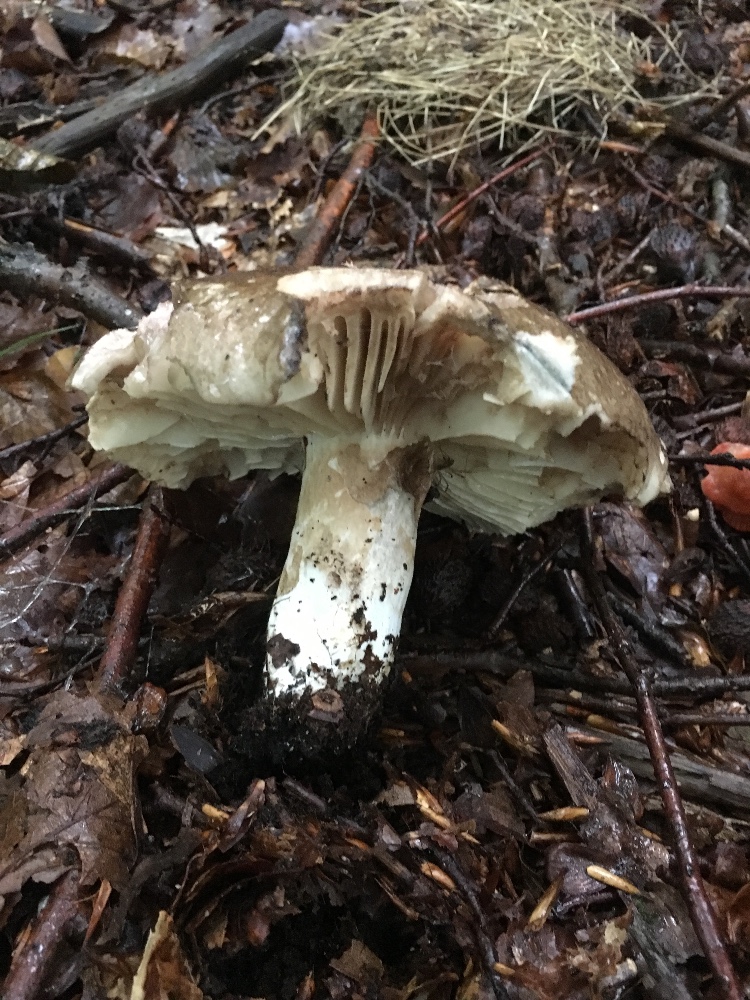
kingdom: Fungi
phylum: Basidiomycota
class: Agaricomycetes
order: Russulales
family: Russulaceae
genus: Russula
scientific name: Russula adusta
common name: sværtende skørhat
